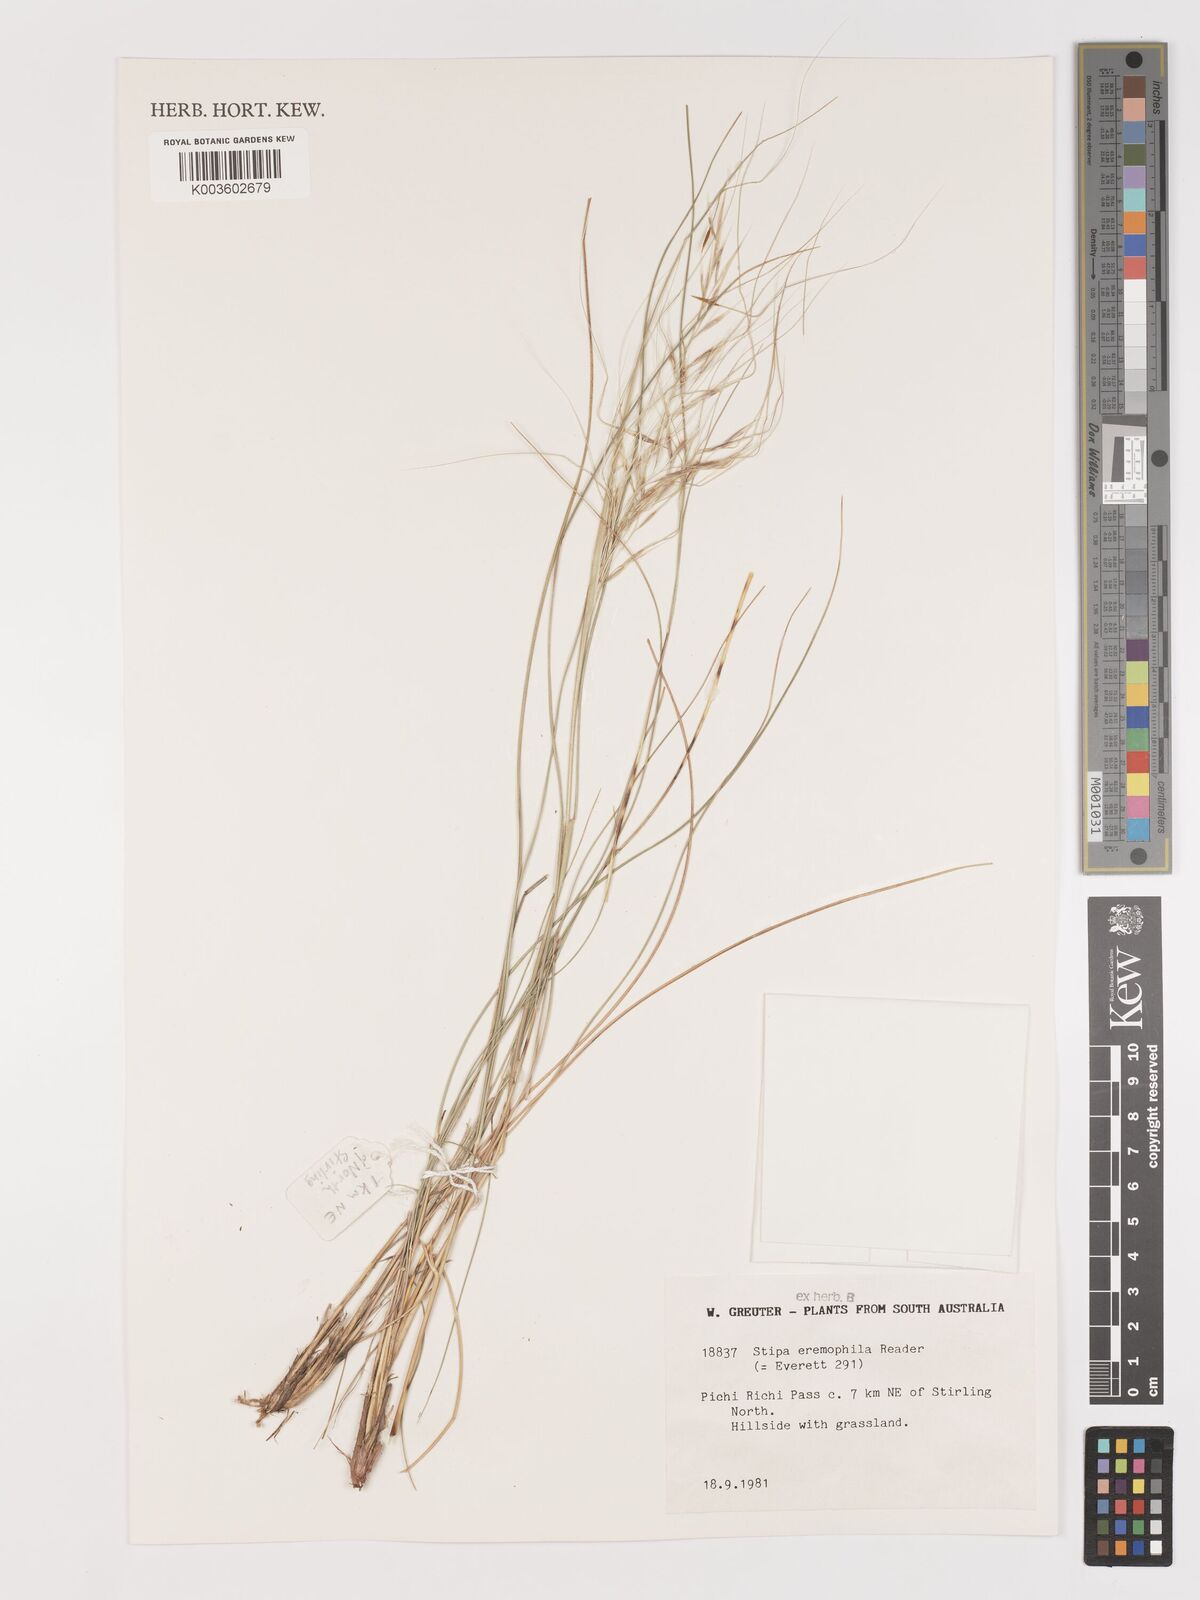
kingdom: Plantae
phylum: Tracheophyta
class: Liliopsida
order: Poales
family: Poaceae
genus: Austrostipa
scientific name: Austrostipa eremophila
